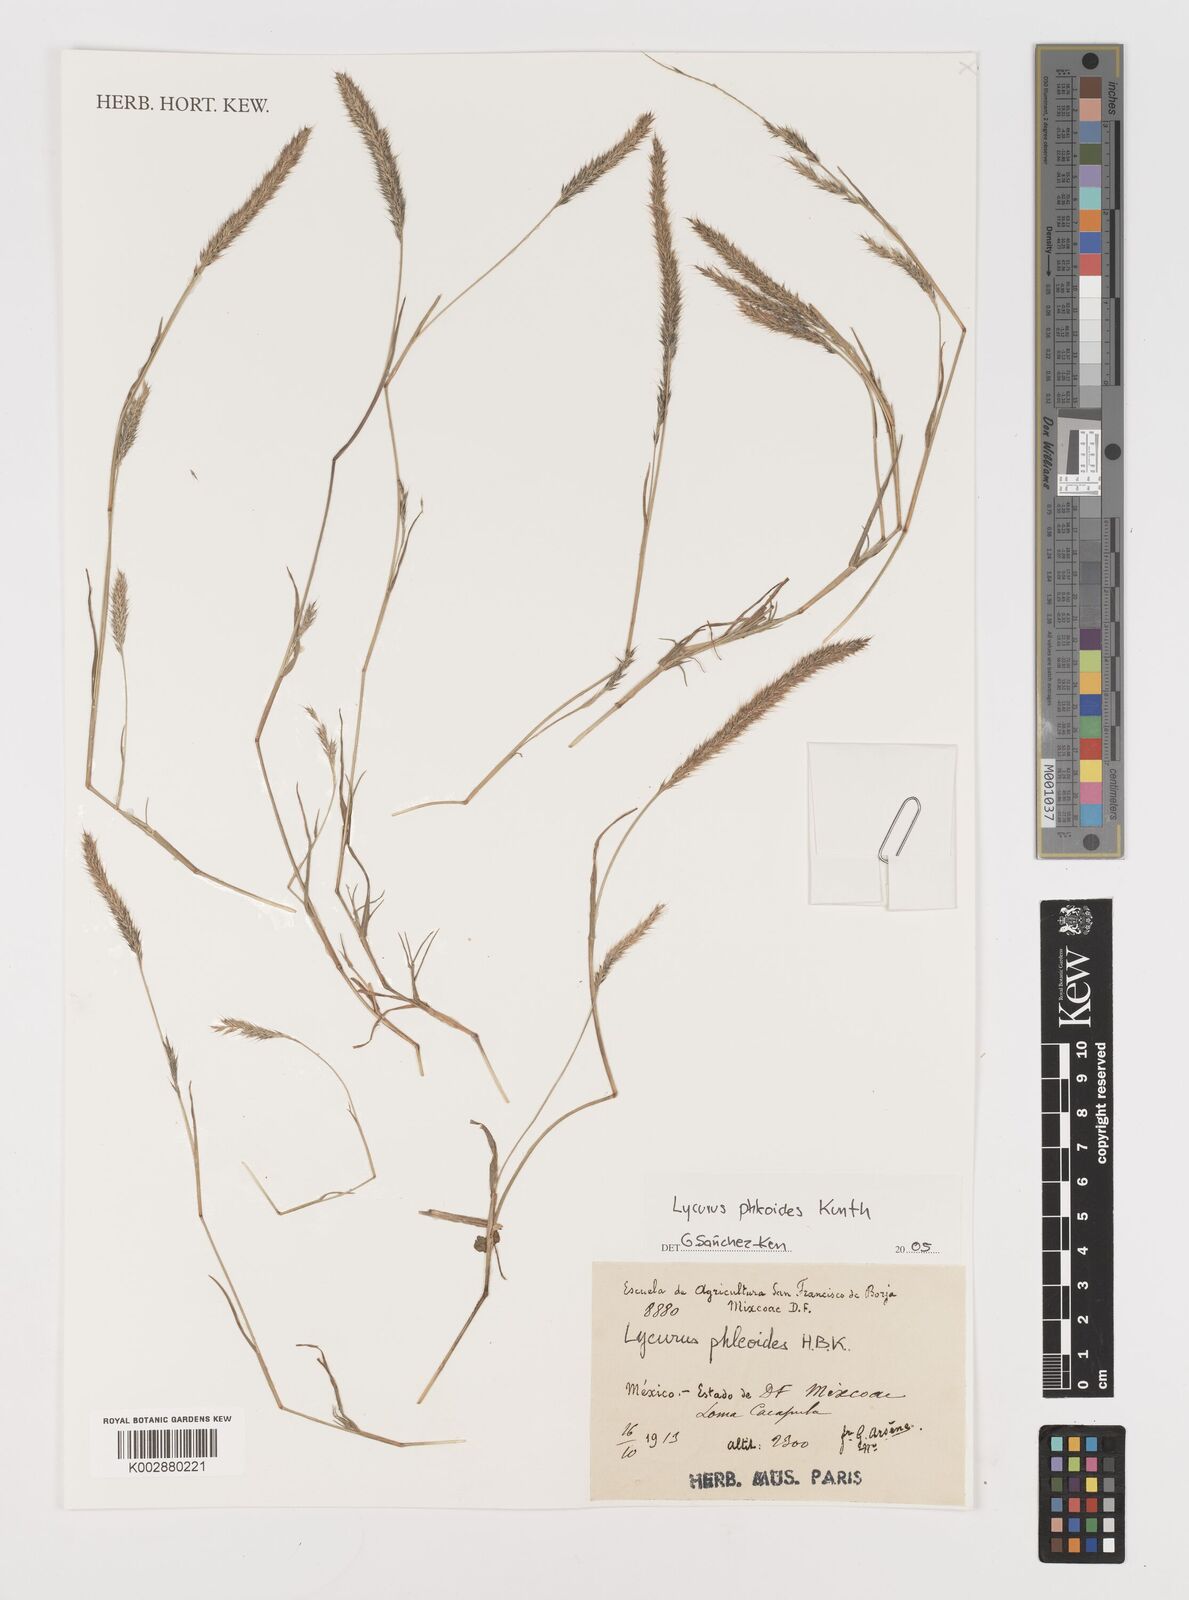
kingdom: Plantae
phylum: Tracheophyta
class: Liliopsida
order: Poales
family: Poaceae
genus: Muhlenbergia
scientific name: Muhlenbergia phleoides
